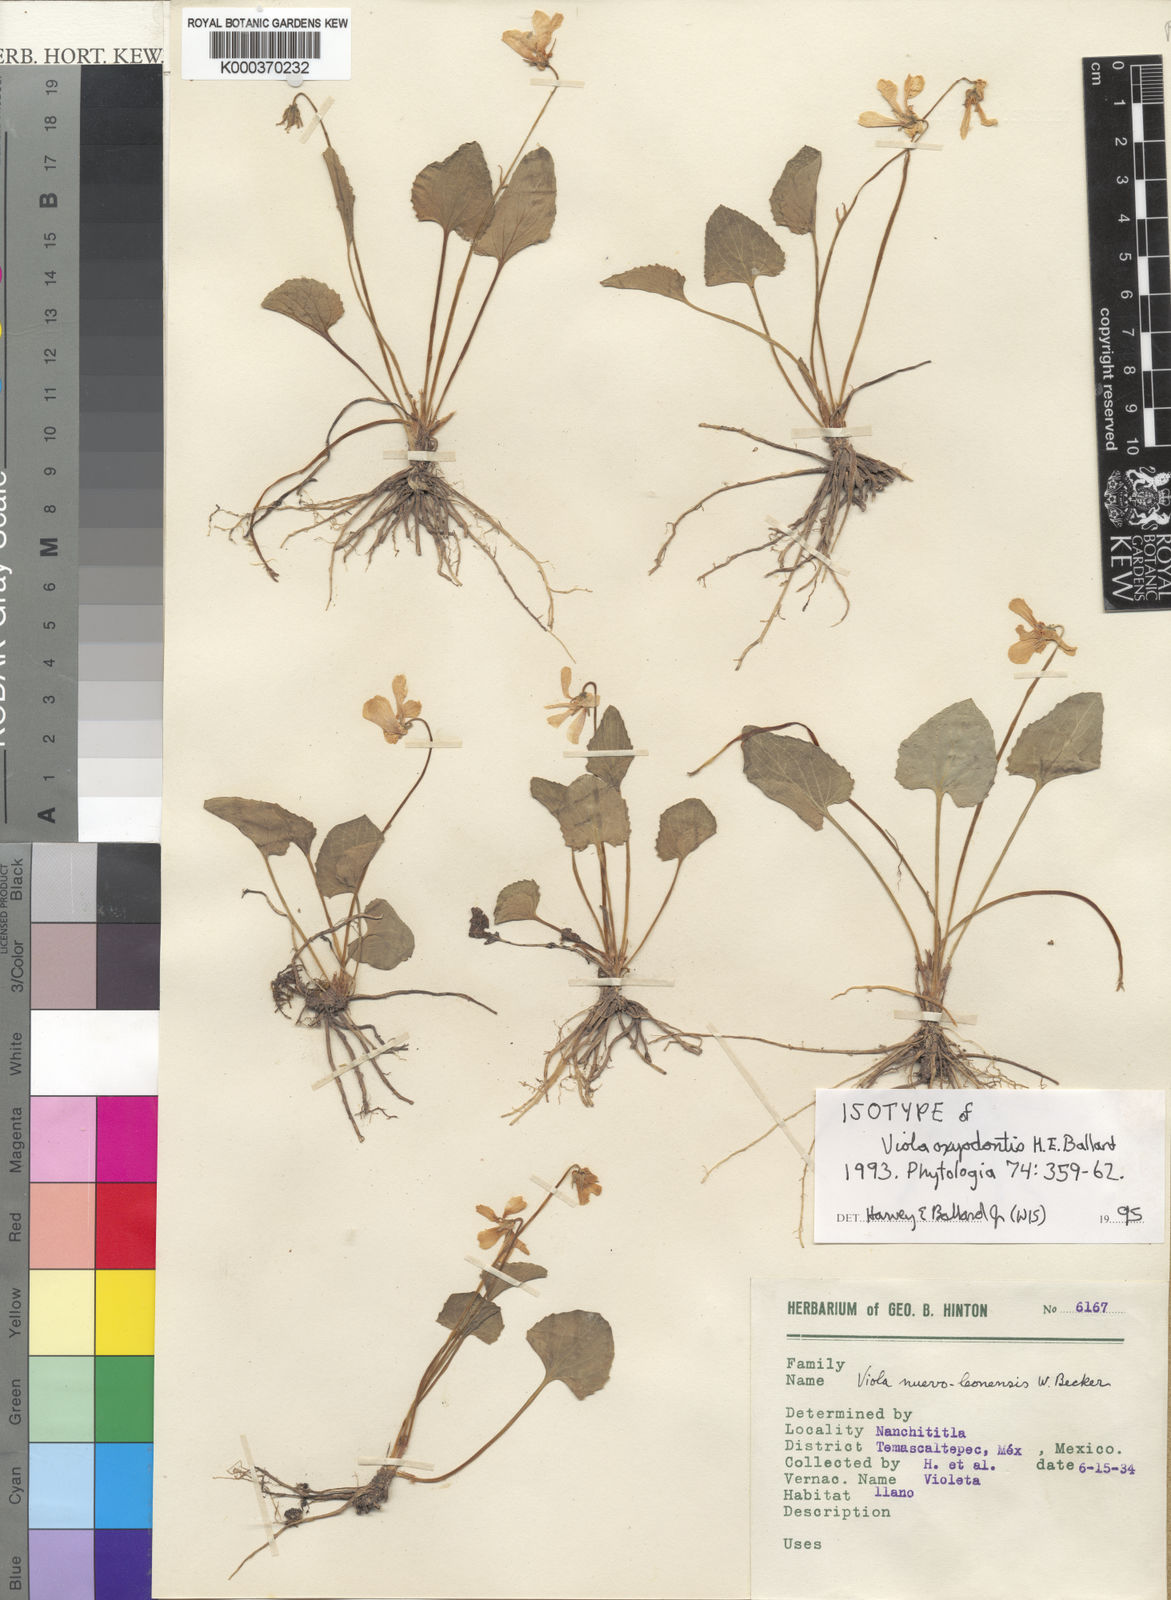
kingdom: Plantae
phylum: Tracheophyta
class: Magnoliopsida
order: Malpighiales
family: Violaceae
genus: Viola
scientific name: Viola oxyodontis
